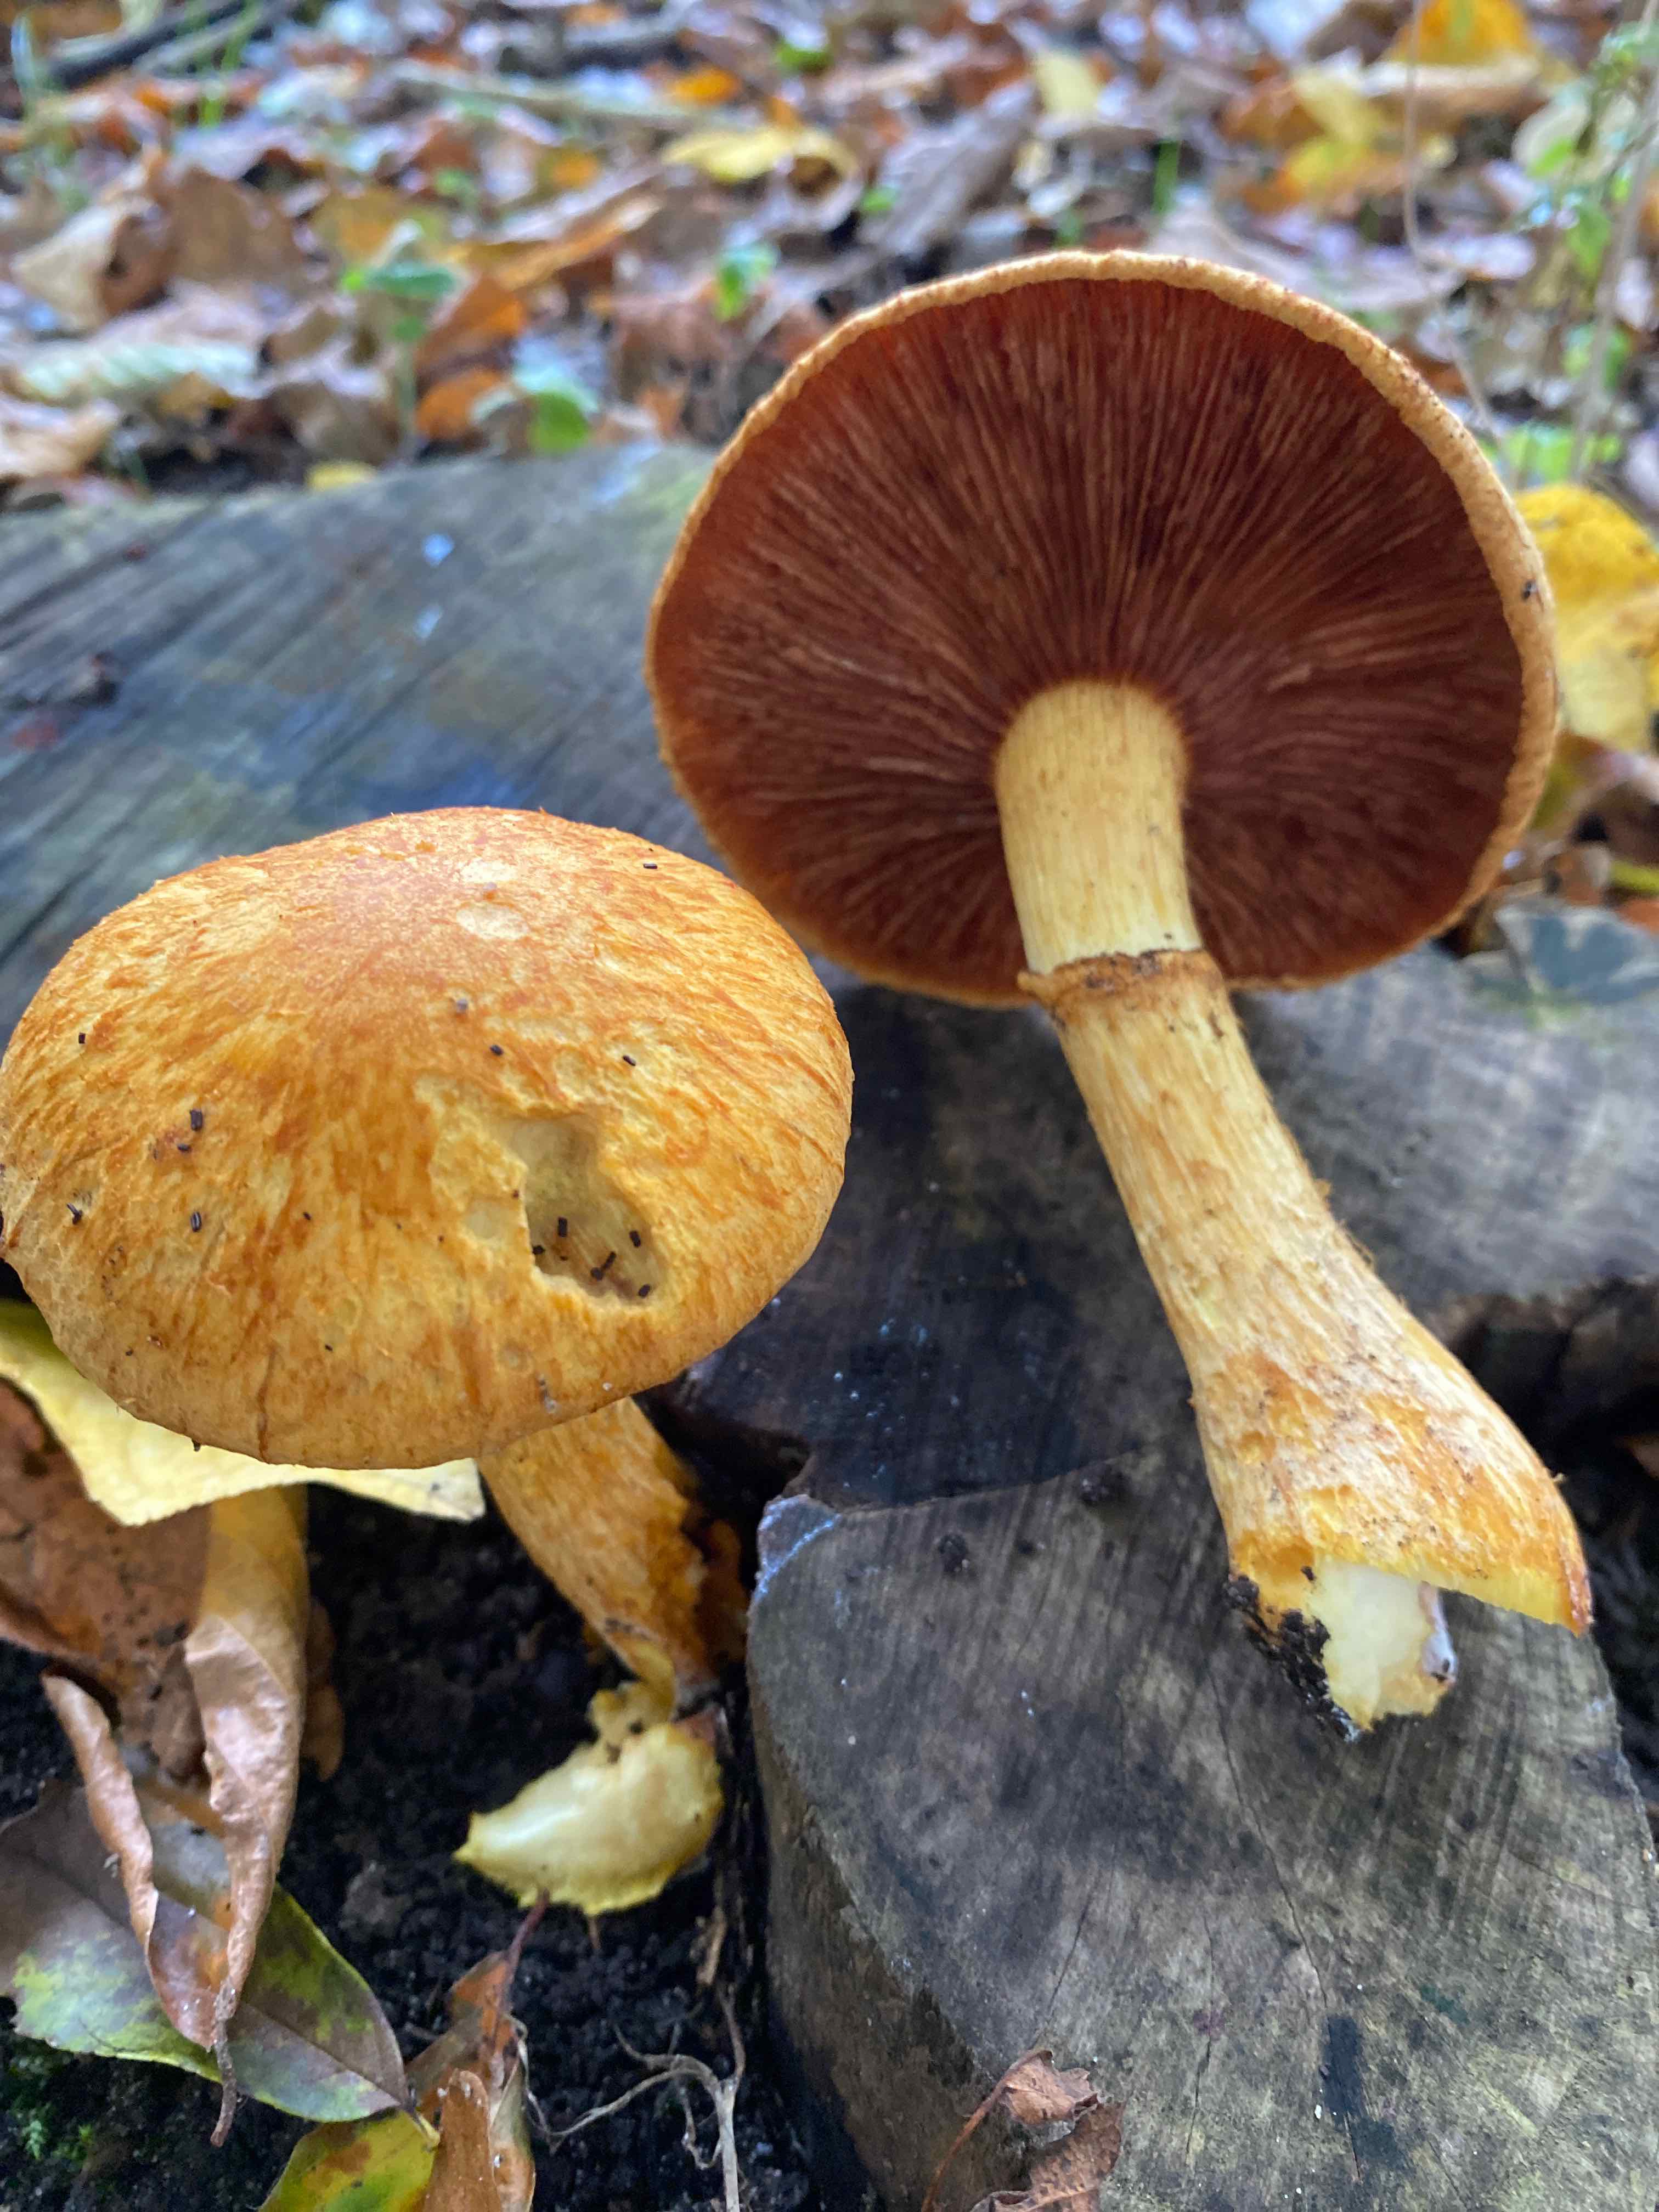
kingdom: Fungi
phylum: Basidiomycota
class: Agaricomycetes
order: Agaricales
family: Hymenogastraceae
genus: Gymnopilus
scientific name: Gymnopilus spectabilis
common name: fibret flammehat
